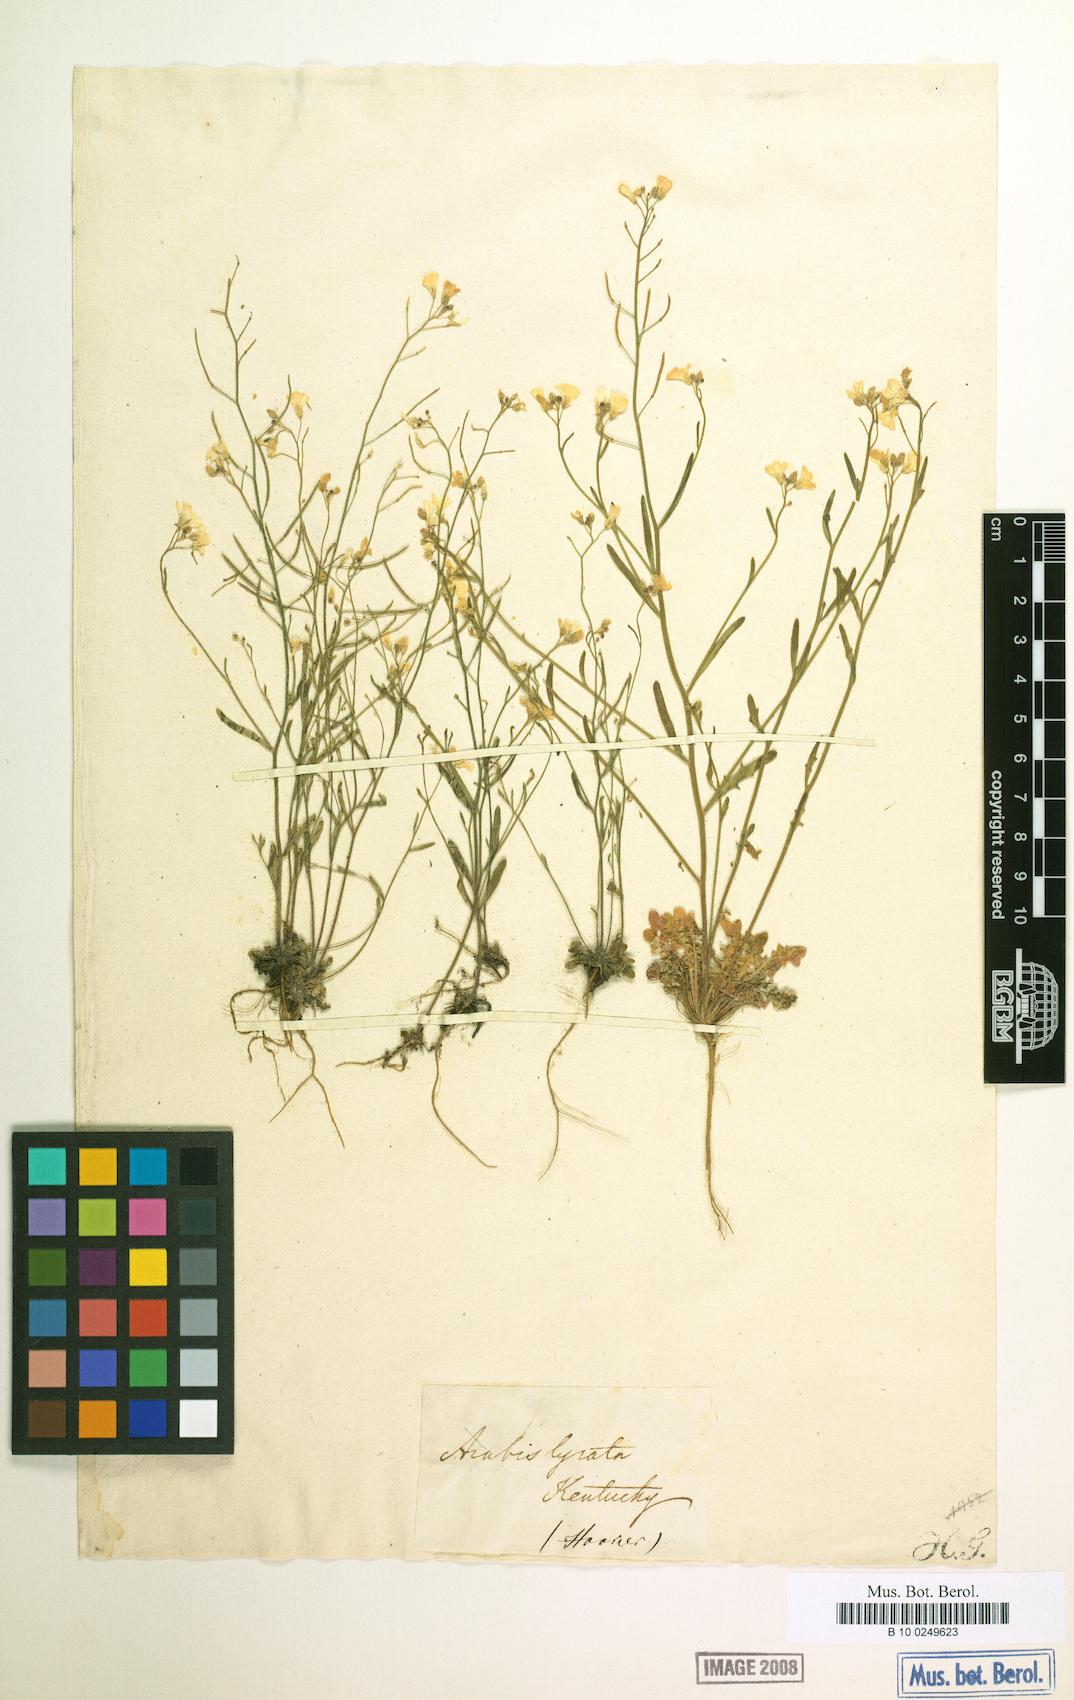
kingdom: Plantae
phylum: Tracheophyta
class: Magnoliopsida
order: Brassicales
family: Brassicaceae
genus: Arabidopsis
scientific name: Arabidopsis lyrata
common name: Lyrate rockcress
